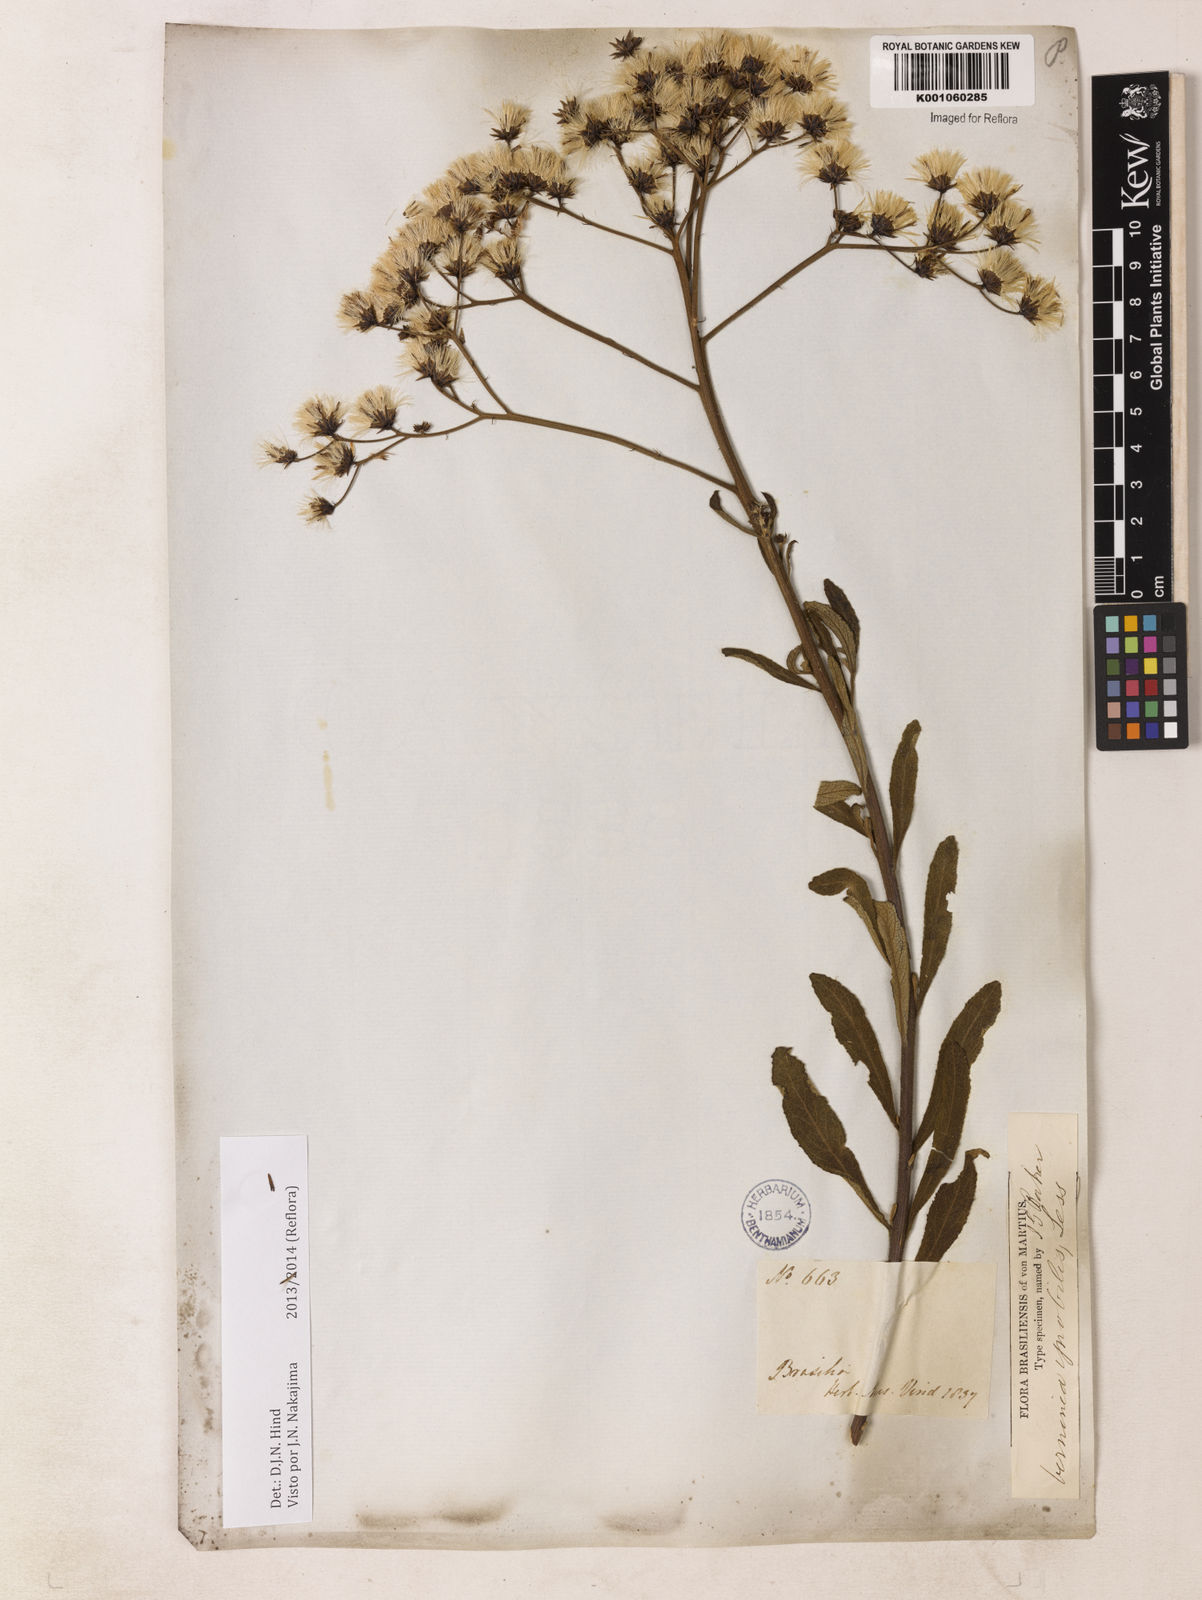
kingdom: Plantae
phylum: Tracheophyta
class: Magnoliopsida
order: Asterales
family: Asteraceae
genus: Vernonanthura
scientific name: Vernonanthura ignobilis
